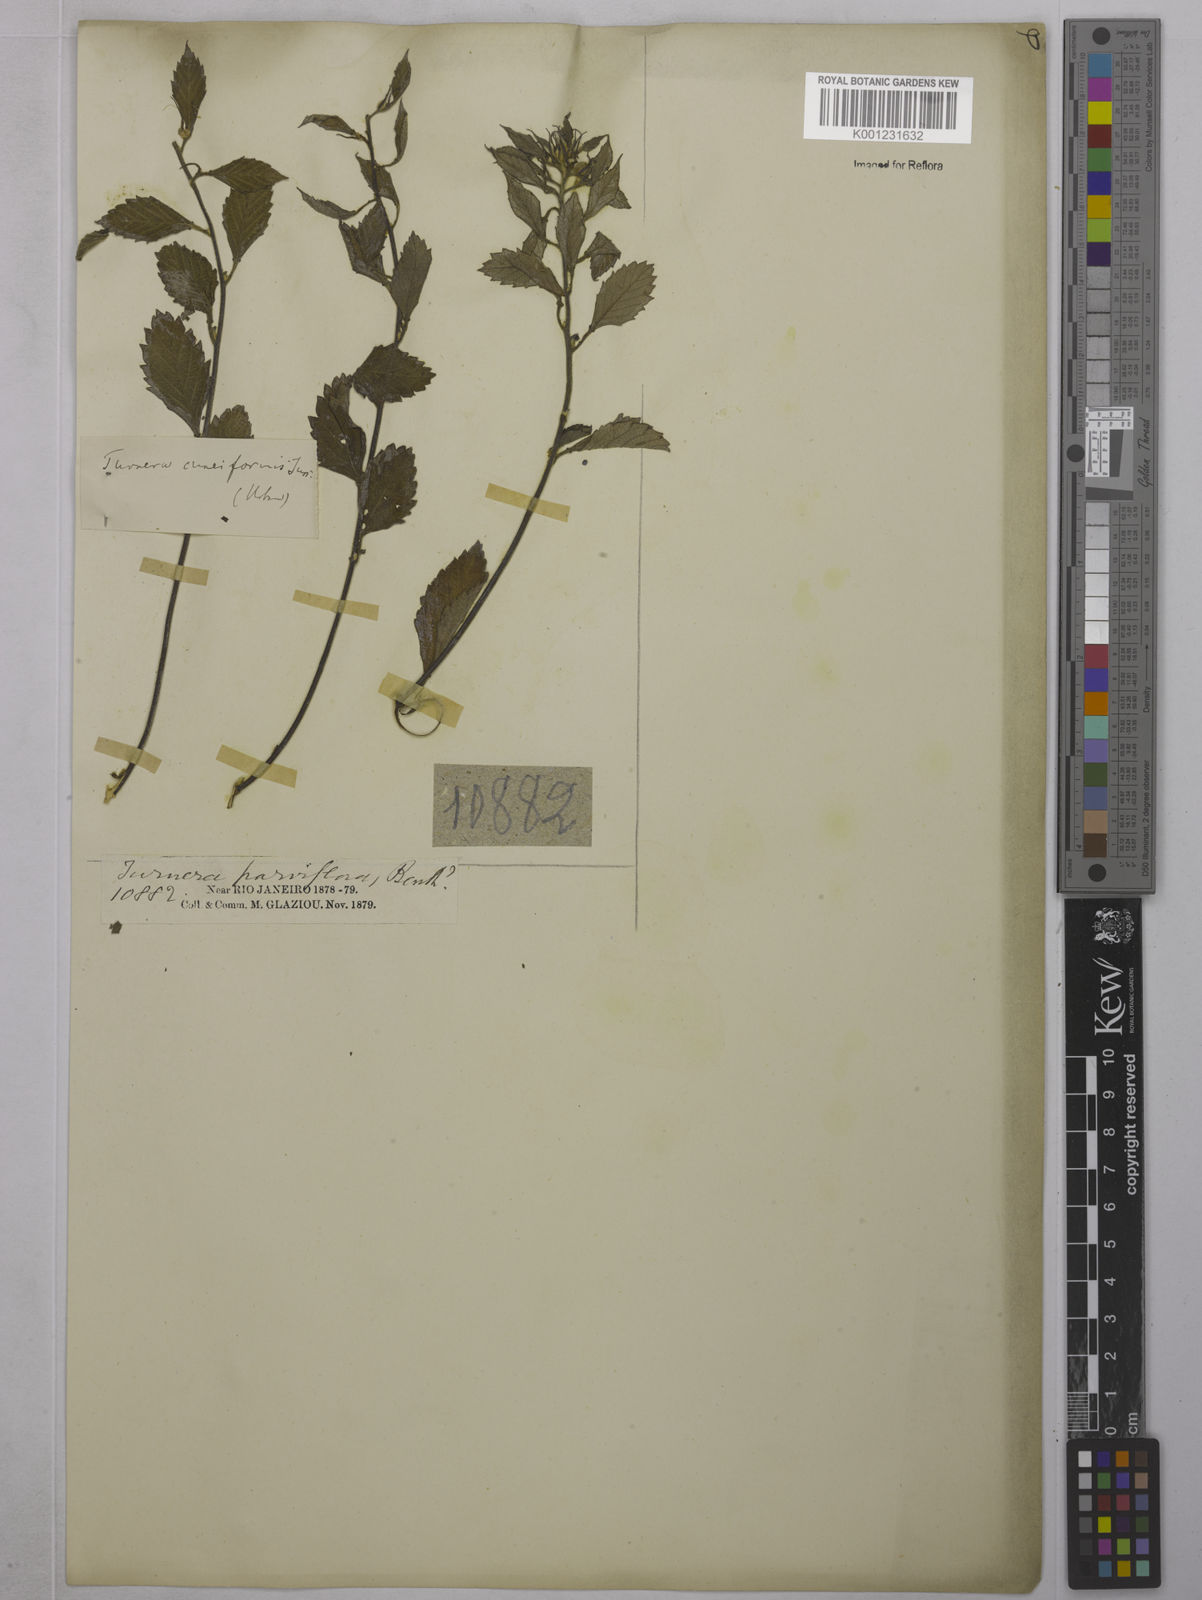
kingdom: Plantae
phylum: Tracheophyta
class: Magnoliopsida
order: Malpighiales
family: Turneraceae
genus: Turnera
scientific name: Turnera cuneiformis
